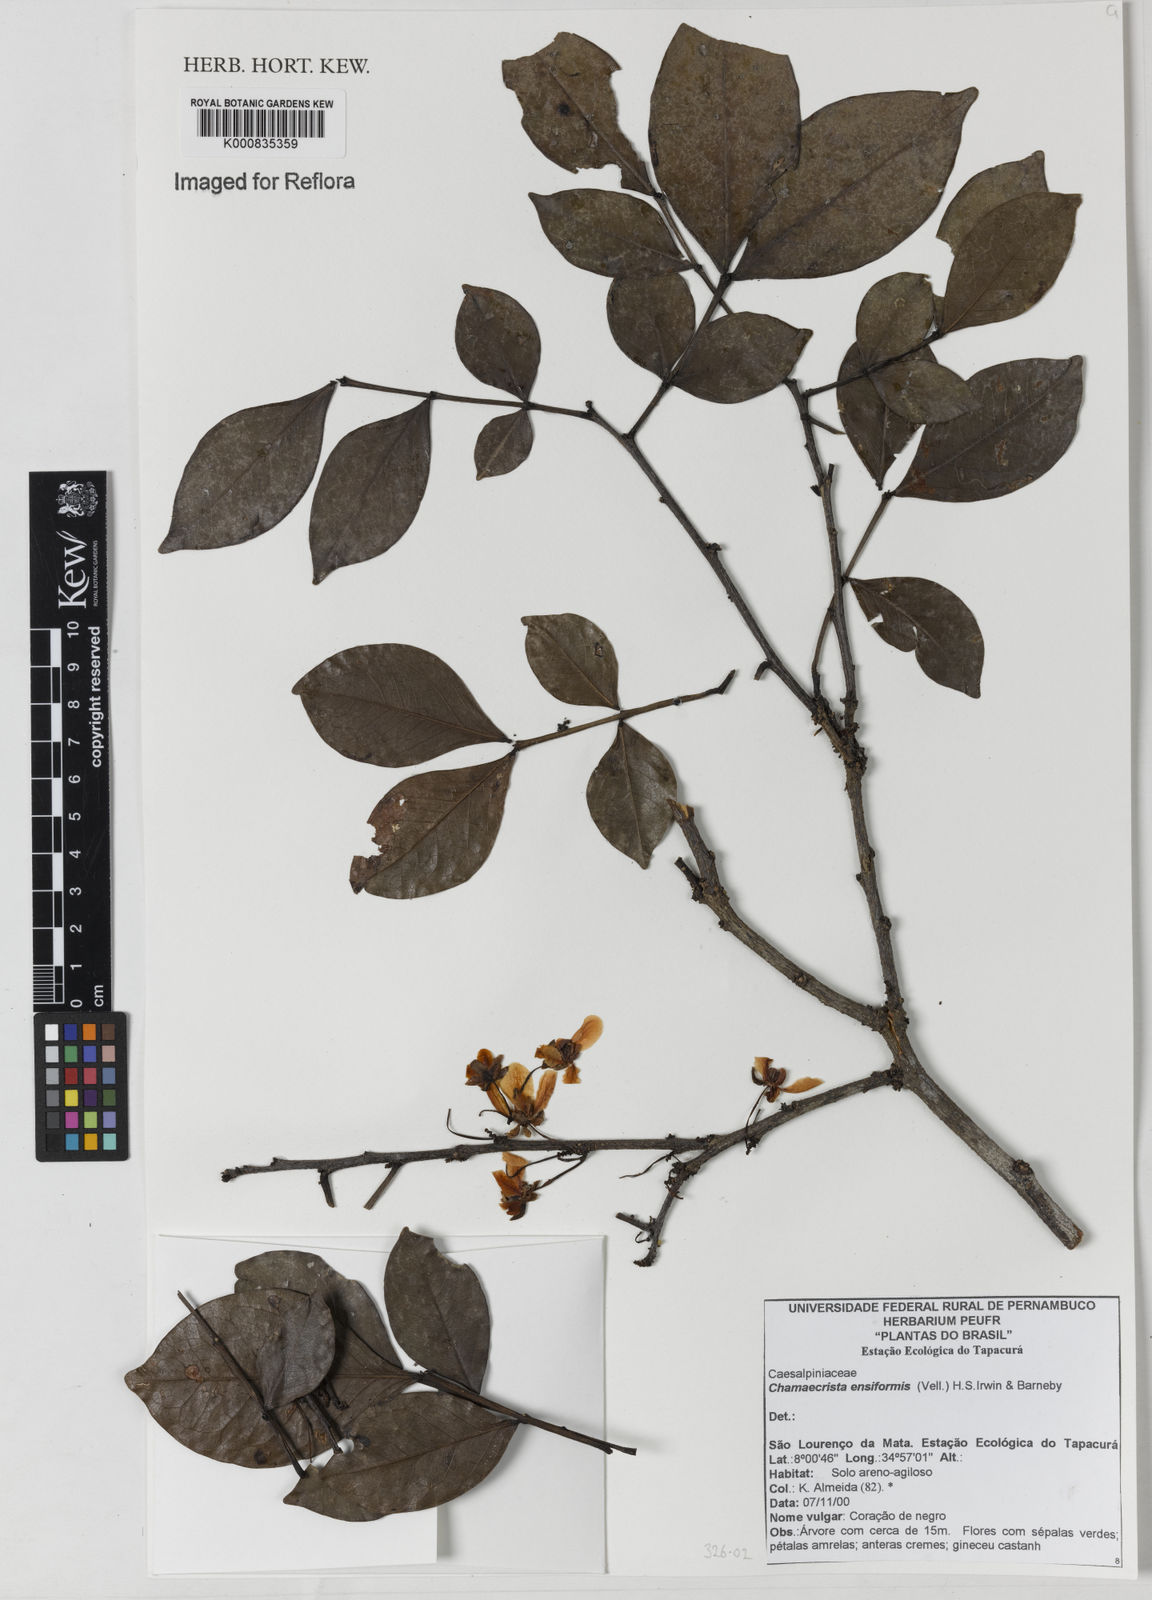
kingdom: Plantae
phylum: Tracheophyta
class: Magnoliopsida
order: Fabales
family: Fabaceae
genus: Chamaecrista
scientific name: Chamaecrista ensiformis
